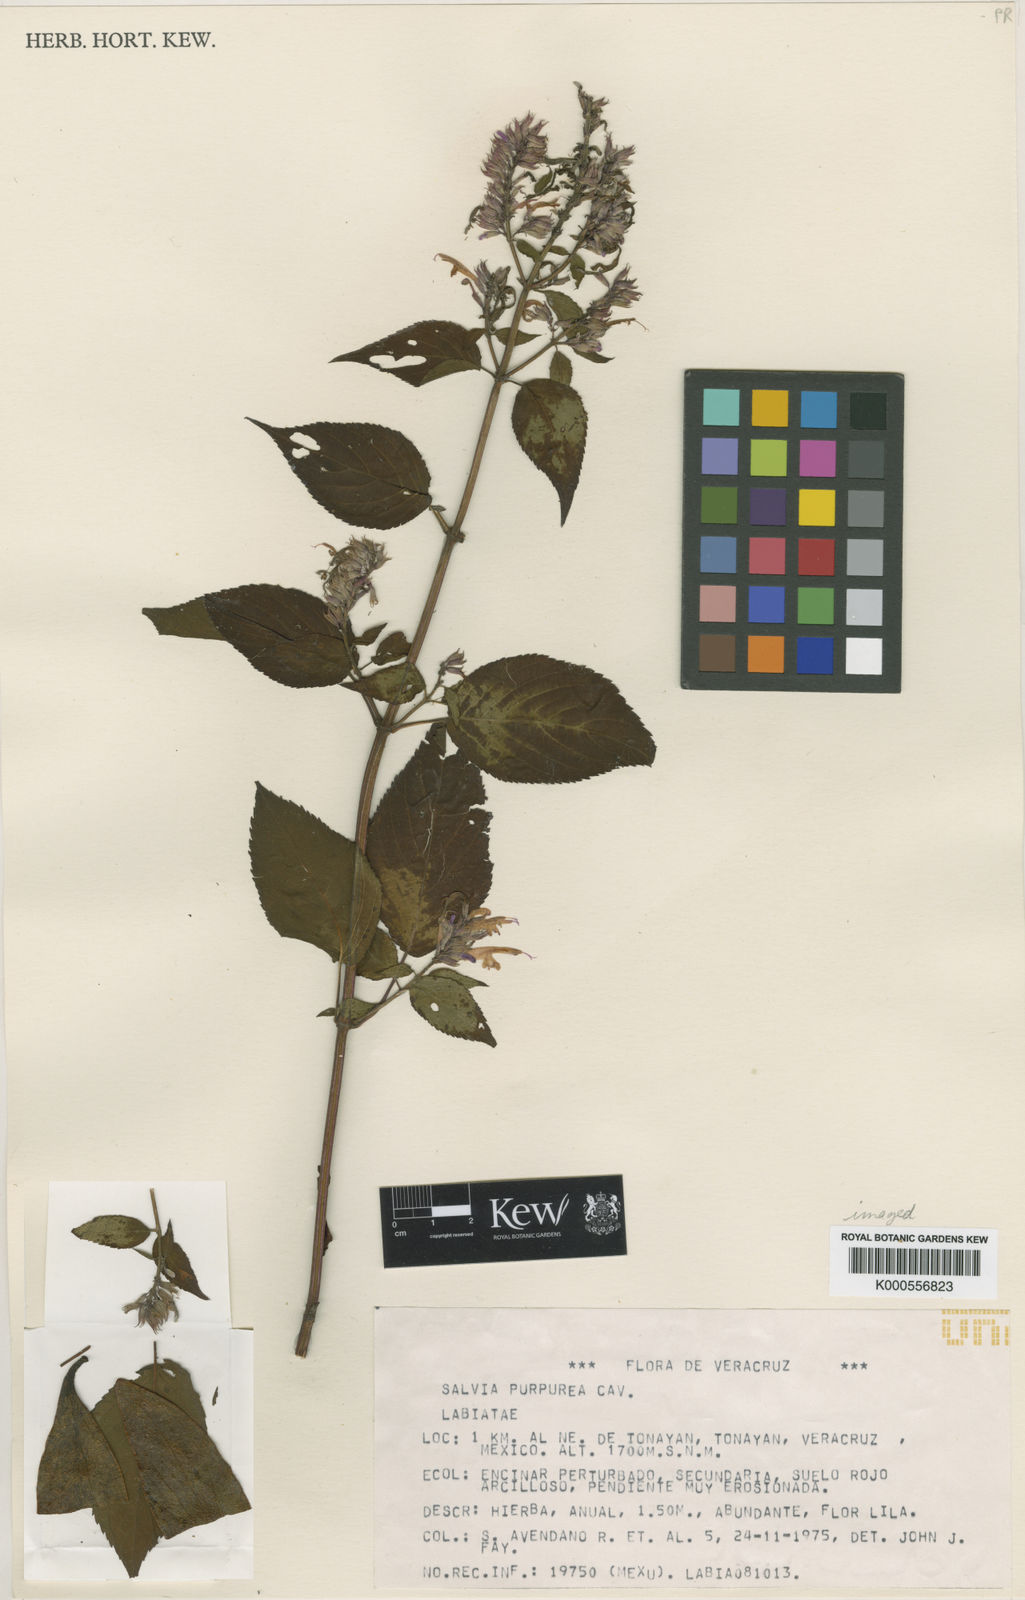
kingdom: Plantae
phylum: Tracheophyta
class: Magnoliopsida
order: Lamiales
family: Lamiaceae
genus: Salvia
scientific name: Salvia purpurea
